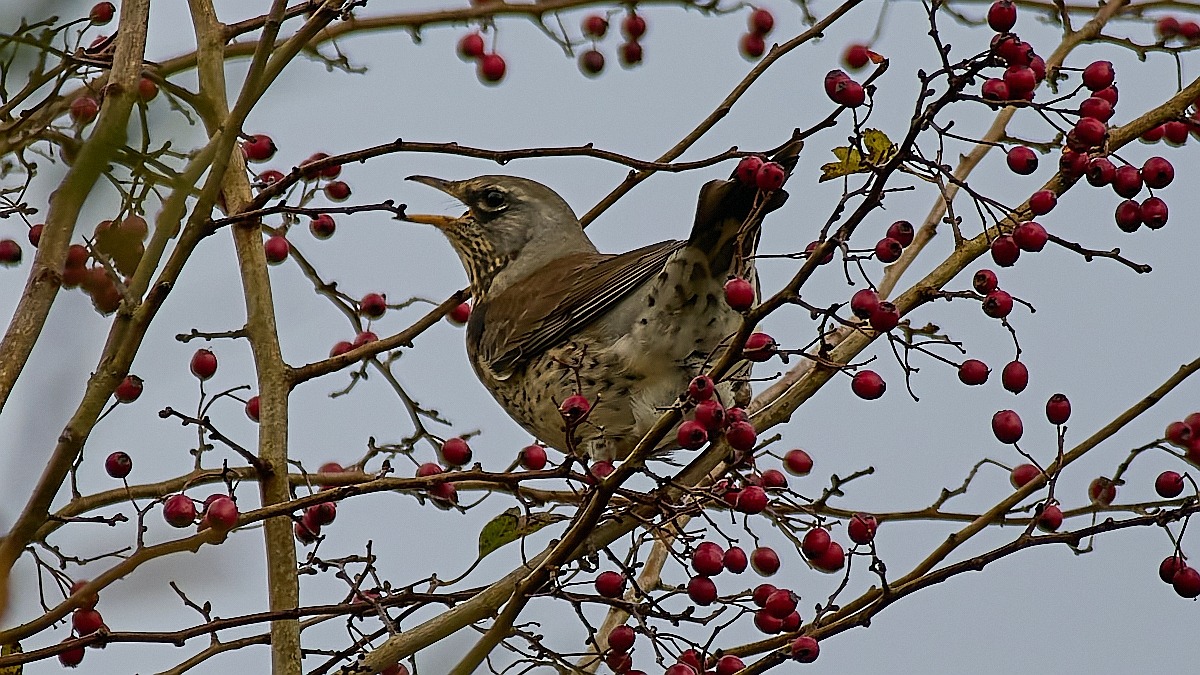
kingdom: Animalia
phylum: Chordata
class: Aves
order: Passeriformes
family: Turdidae
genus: Turdus
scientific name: Turdus pilaris
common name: Sjagger
